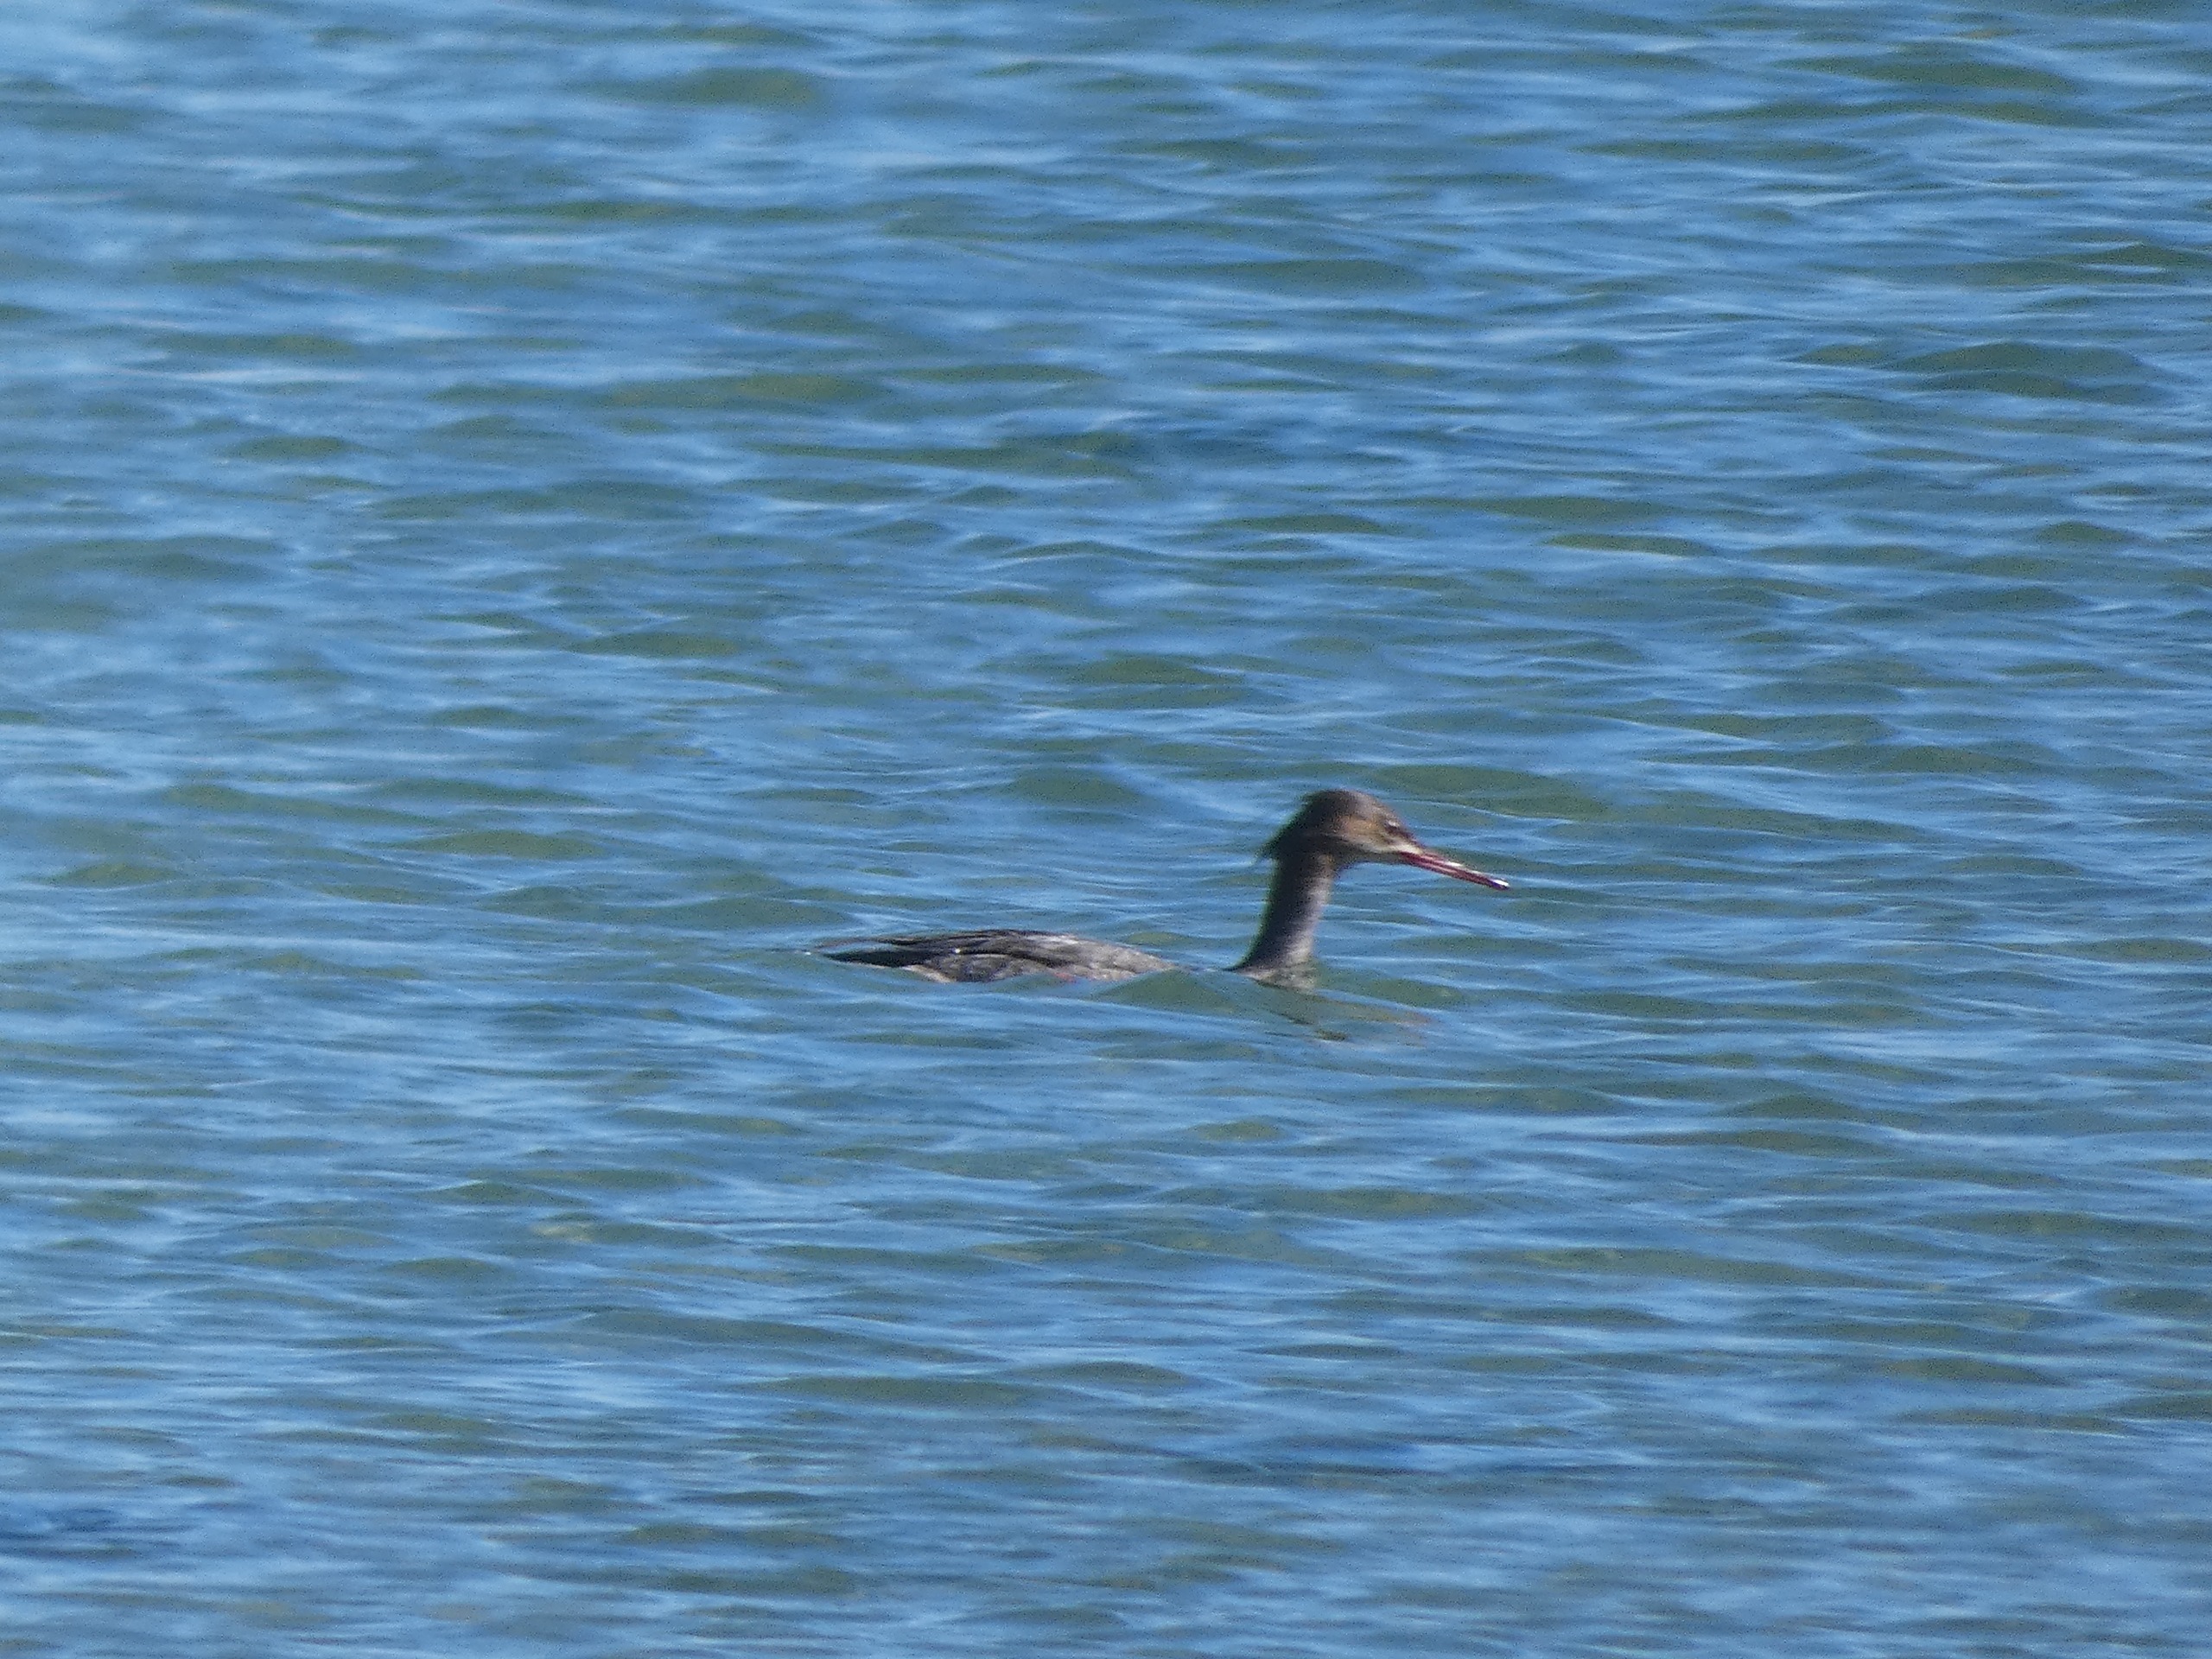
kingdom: Animalia
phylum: Chordata
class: Aves
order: Anseriformes
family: Anatidae
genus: Mergus
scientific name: Mergus serrator
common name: Toppet skallesluger
